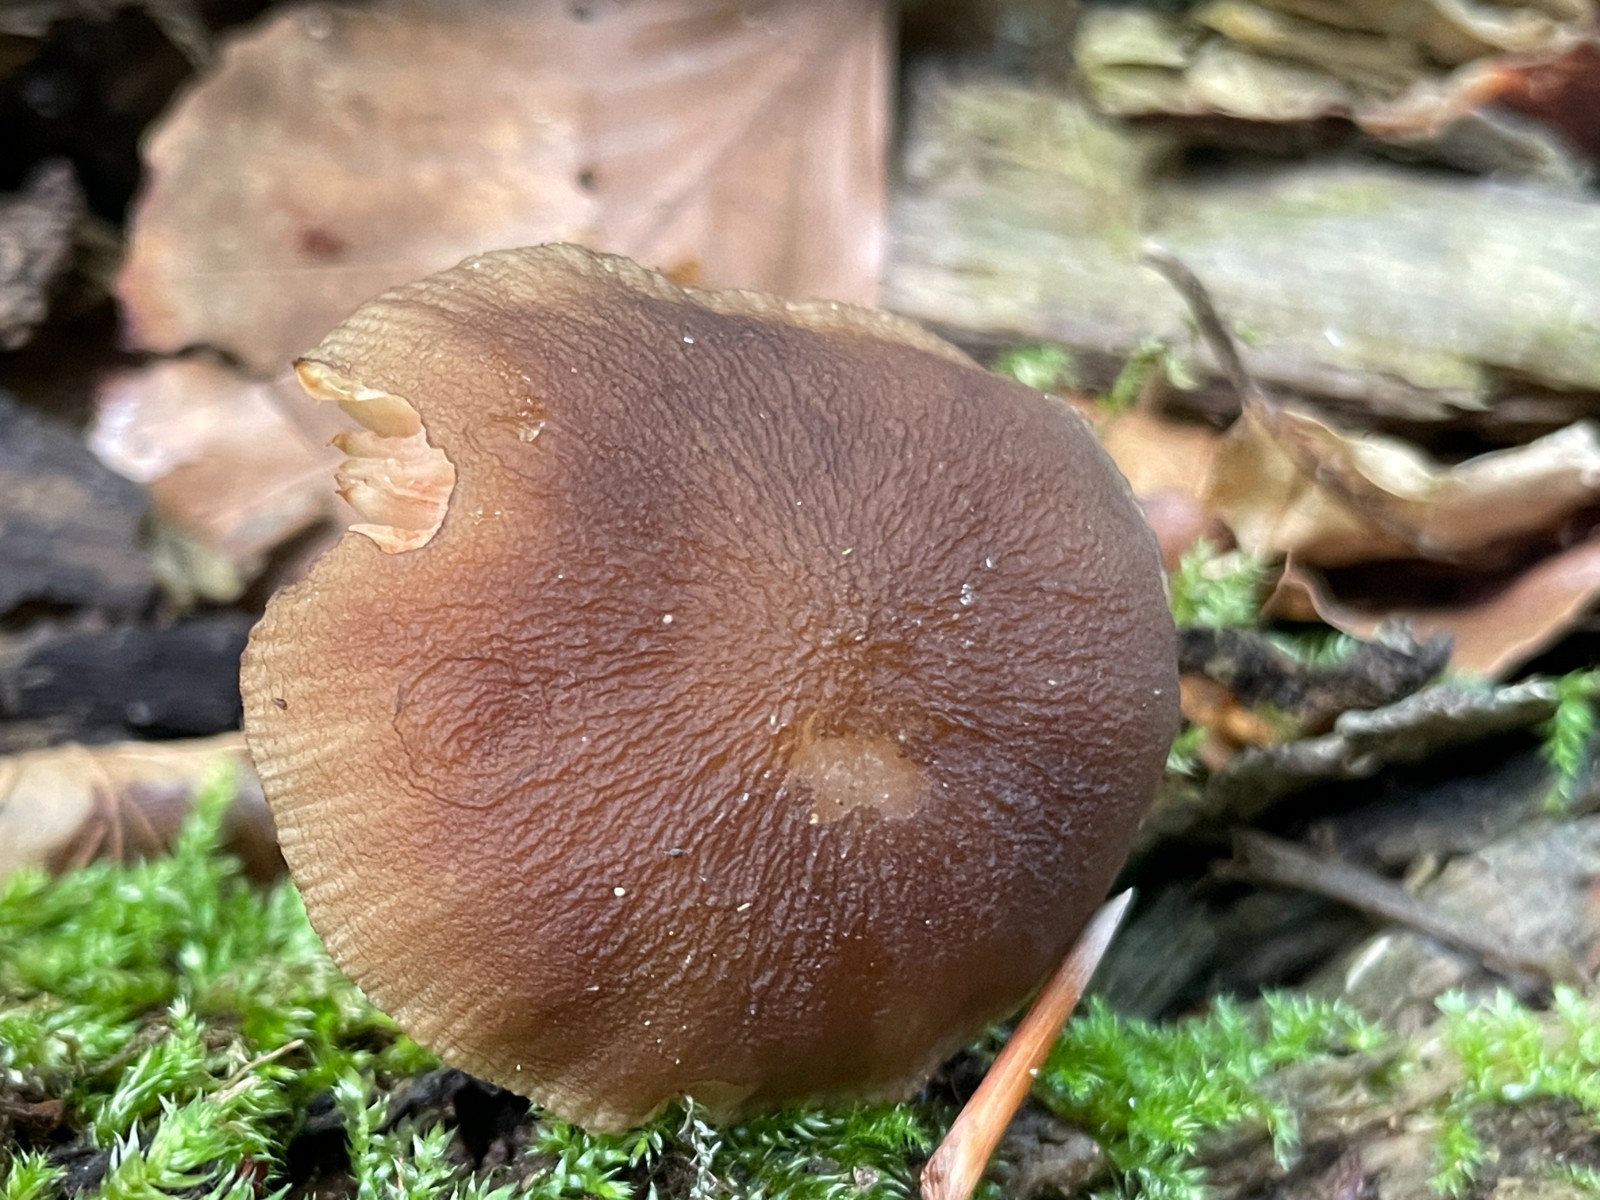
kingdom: Fungi
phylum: Basidiomycota
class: Agaricomycetes
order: Agaricales
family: Pluteaceae
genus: Pluteus
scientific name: Pluteus phlebophorus
